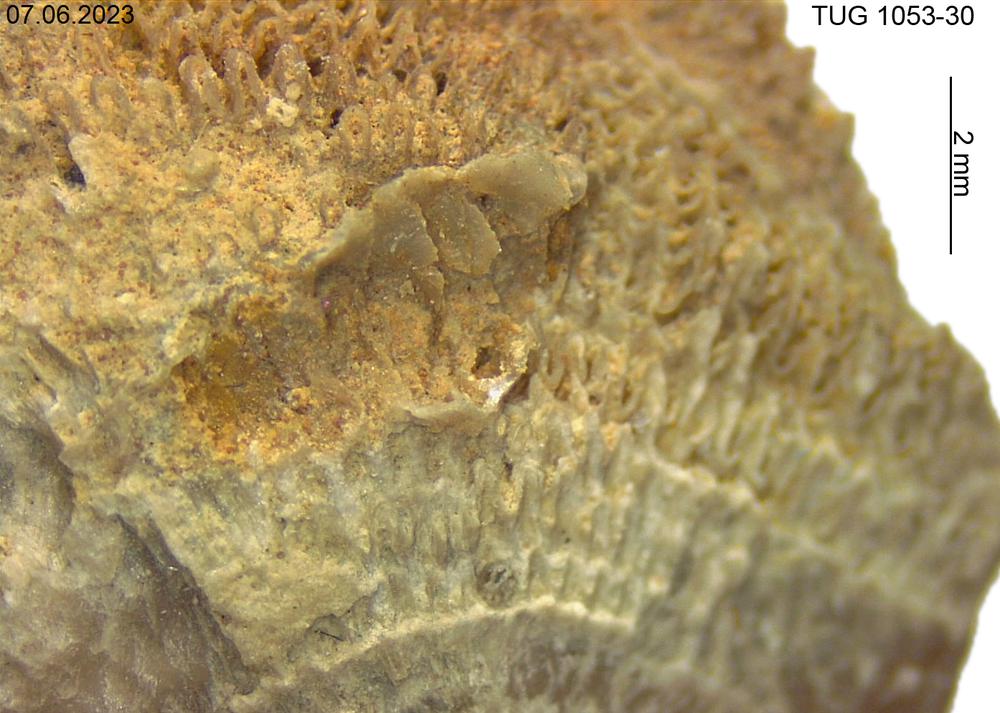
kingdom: Animalia
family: Cornulitidae
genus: Cornulites
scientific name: Cornulites
